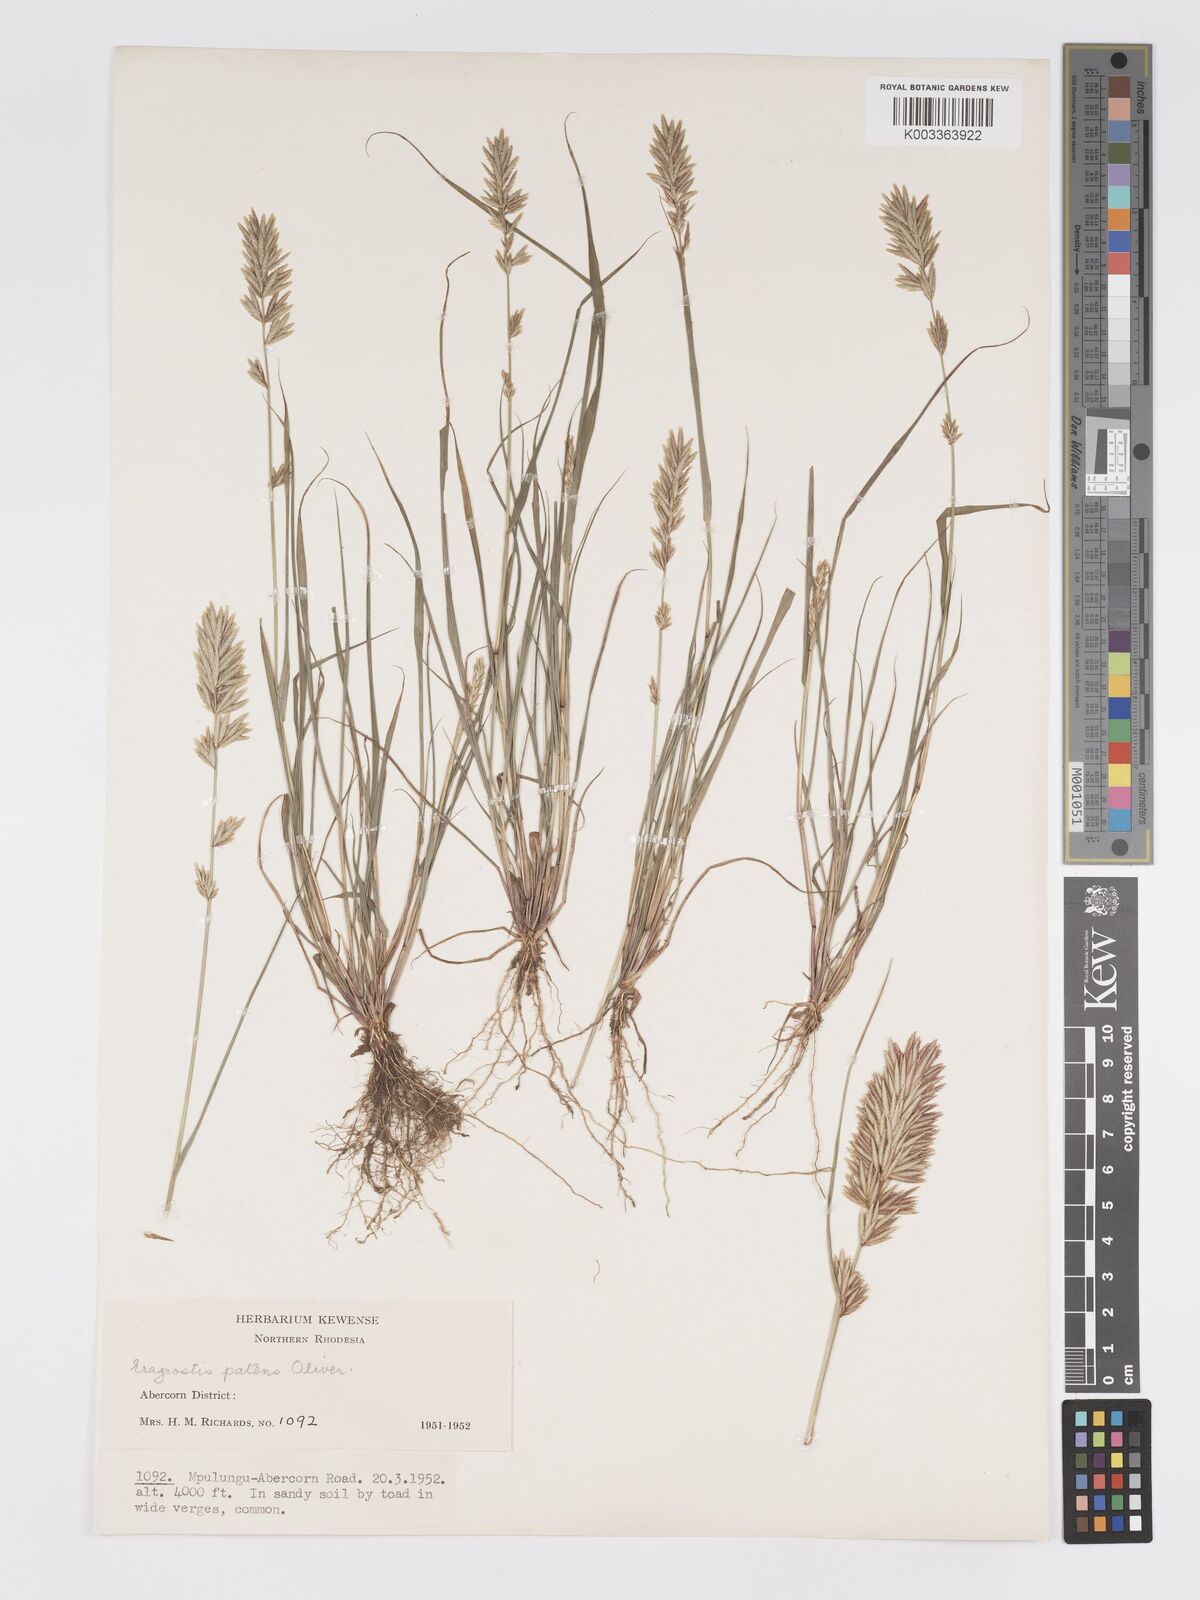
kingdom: Plantae
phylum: Tracheophyta
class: Liliopsida
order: Poales
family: Poaceae
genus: Eragrostis
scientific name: Eragrostis patens
